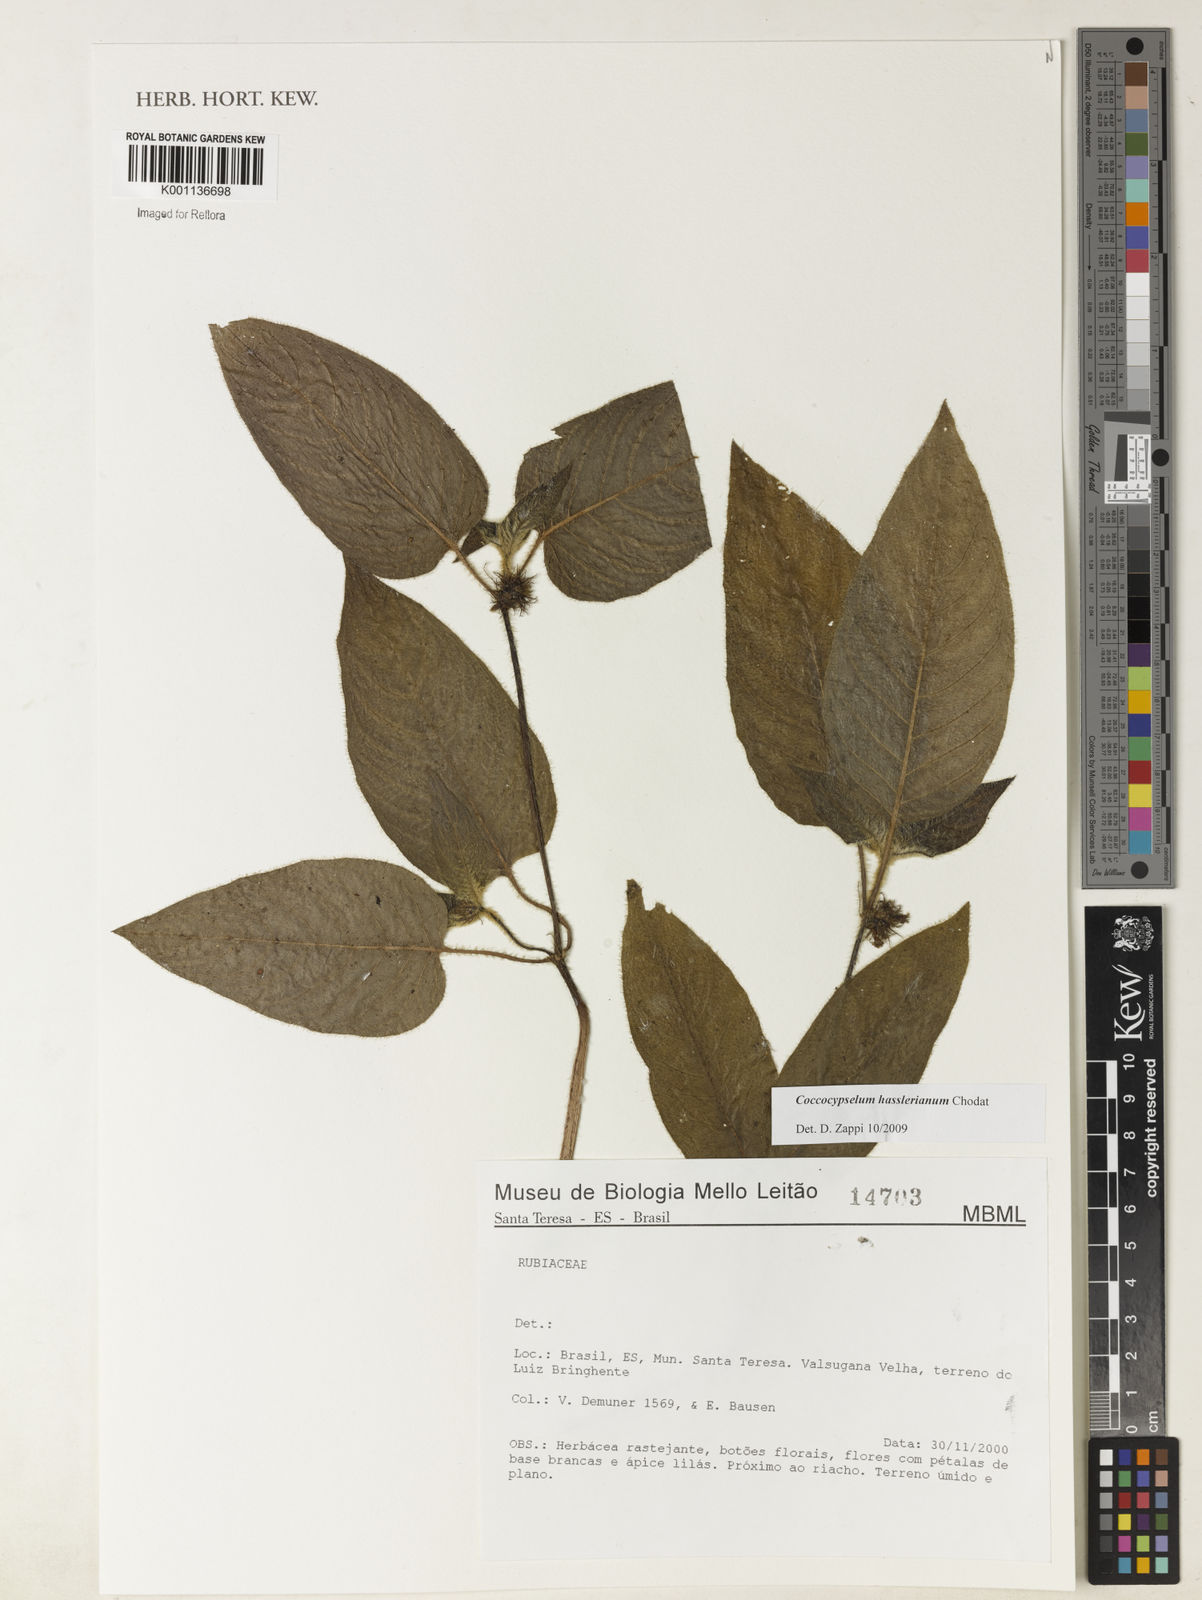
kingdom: Plantae
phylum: Tracheophyta
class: Magnoliopsida
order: Gentianales
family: Rubiaceae
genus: Coccocypselum
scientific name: Coccocypselum hasslerianum
